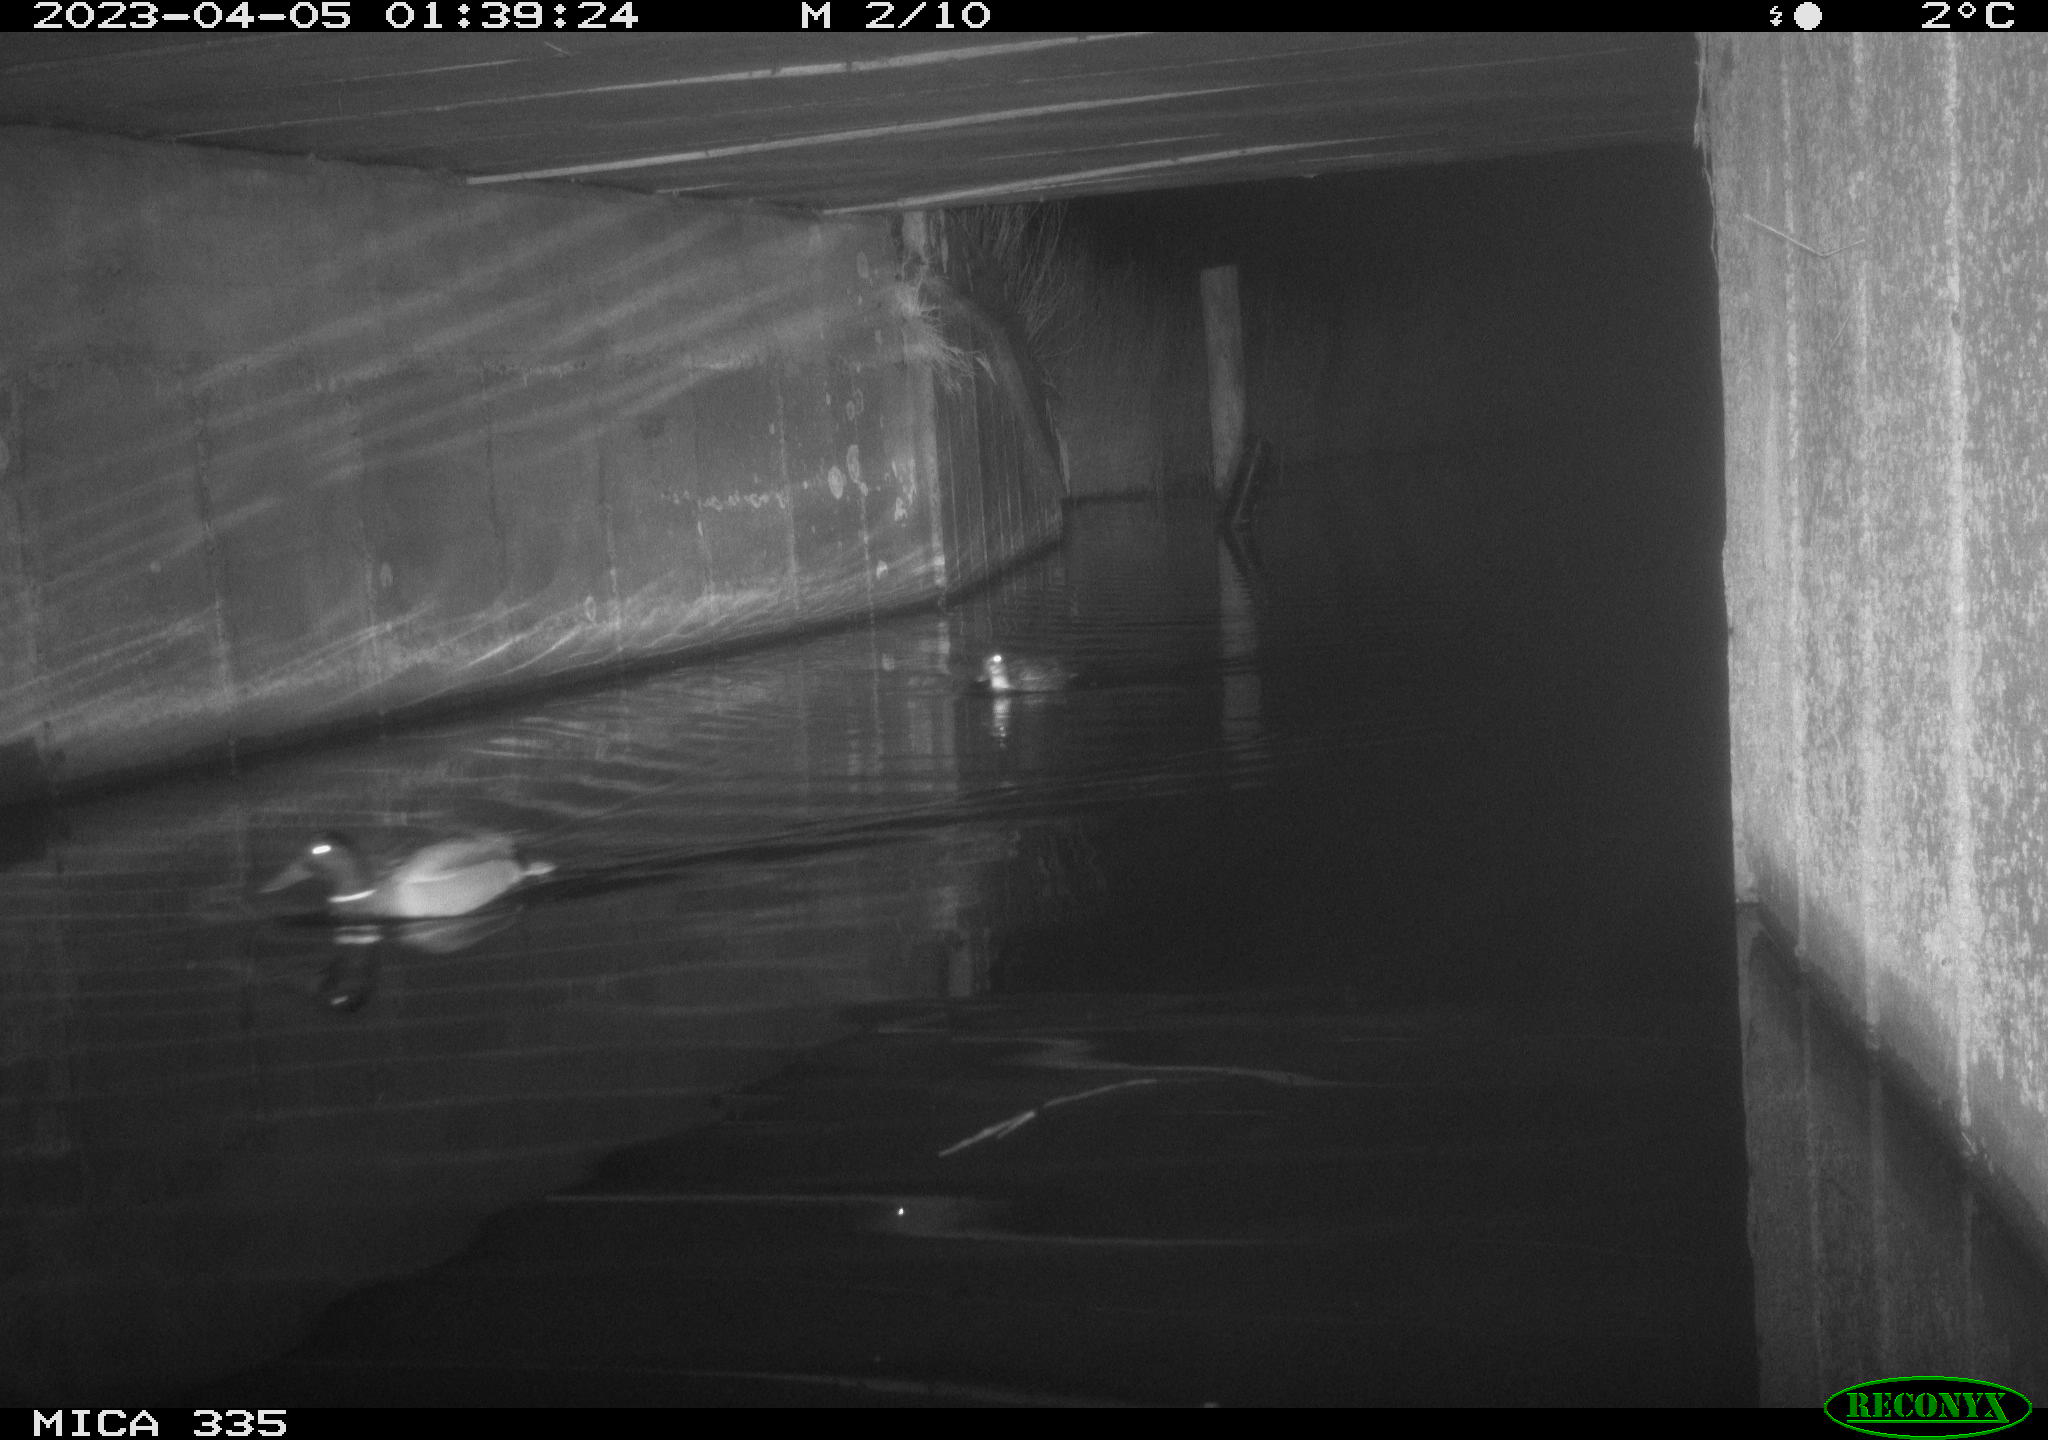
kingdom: Animalia
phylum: Chordata
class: Aves
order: Anseriformes
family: Anatidae
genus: Anas
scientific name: Anas
